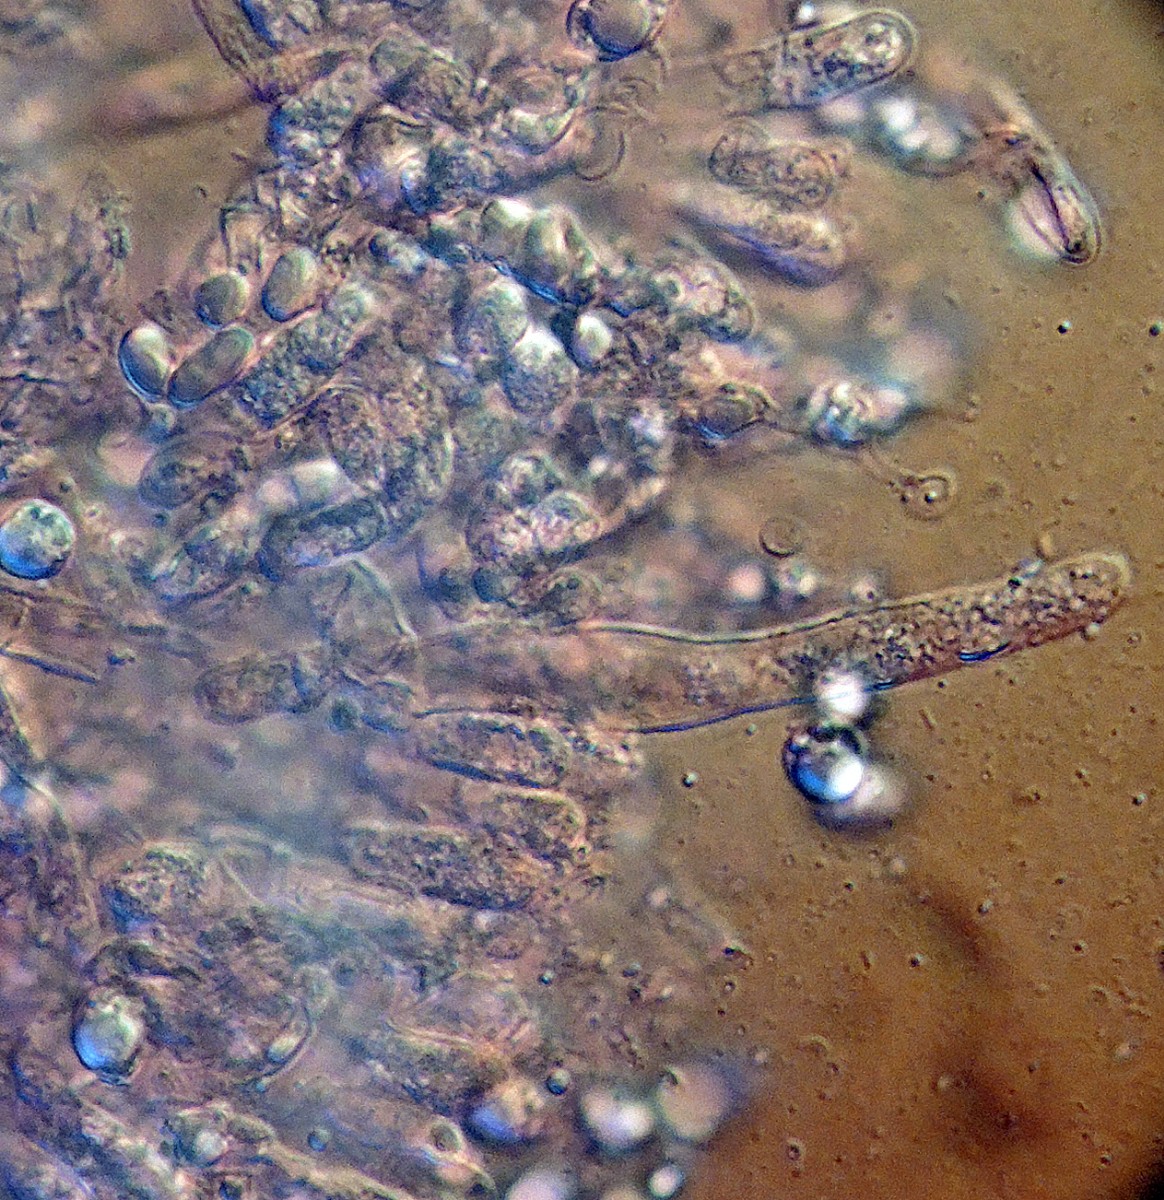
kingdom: Fungi
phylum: Basidiomycota
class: Agaricomycetes
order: Cantharellales
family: Hydnaceae
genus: Clavulina
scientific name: Clavulina incarnata
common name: dunet troldkølle
